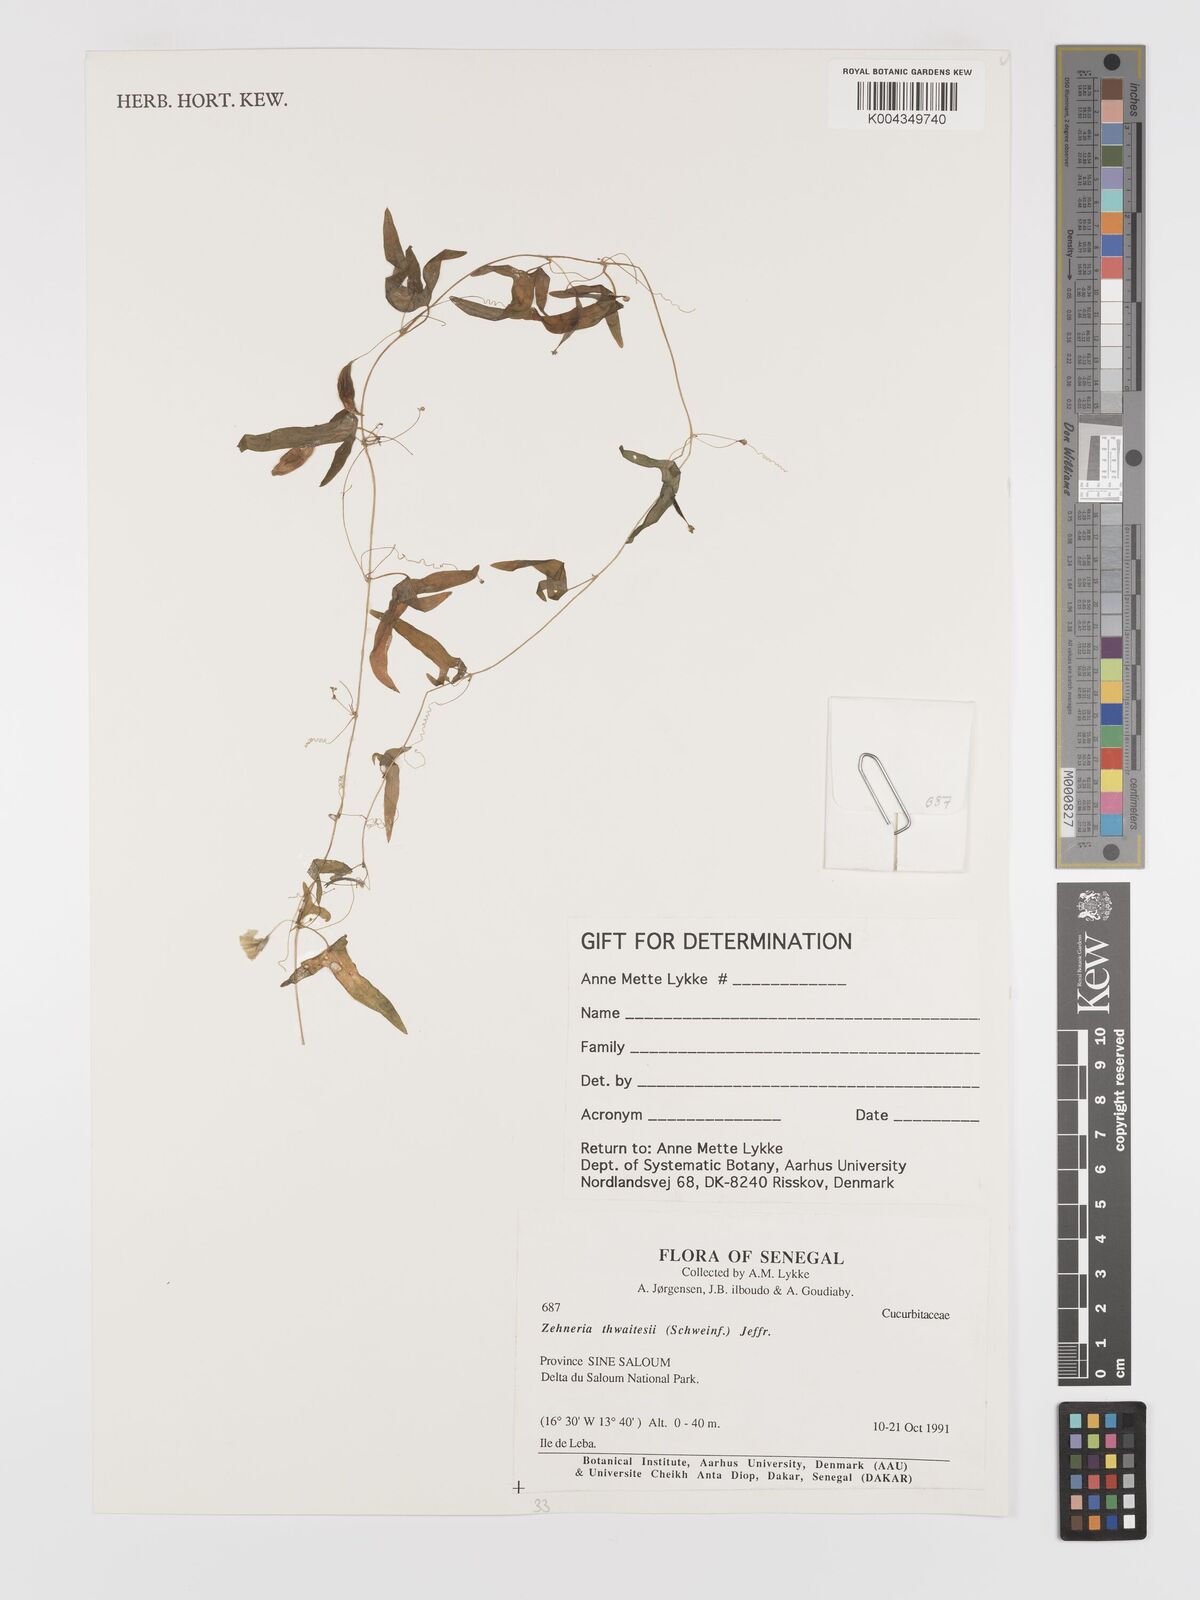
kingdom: Plantae
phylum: Tracheophyta
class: Magnoliopsida
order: Cucurbitales
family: Cucurbitaceae
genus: Zehneria
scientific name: Zehneria thwaitesii
